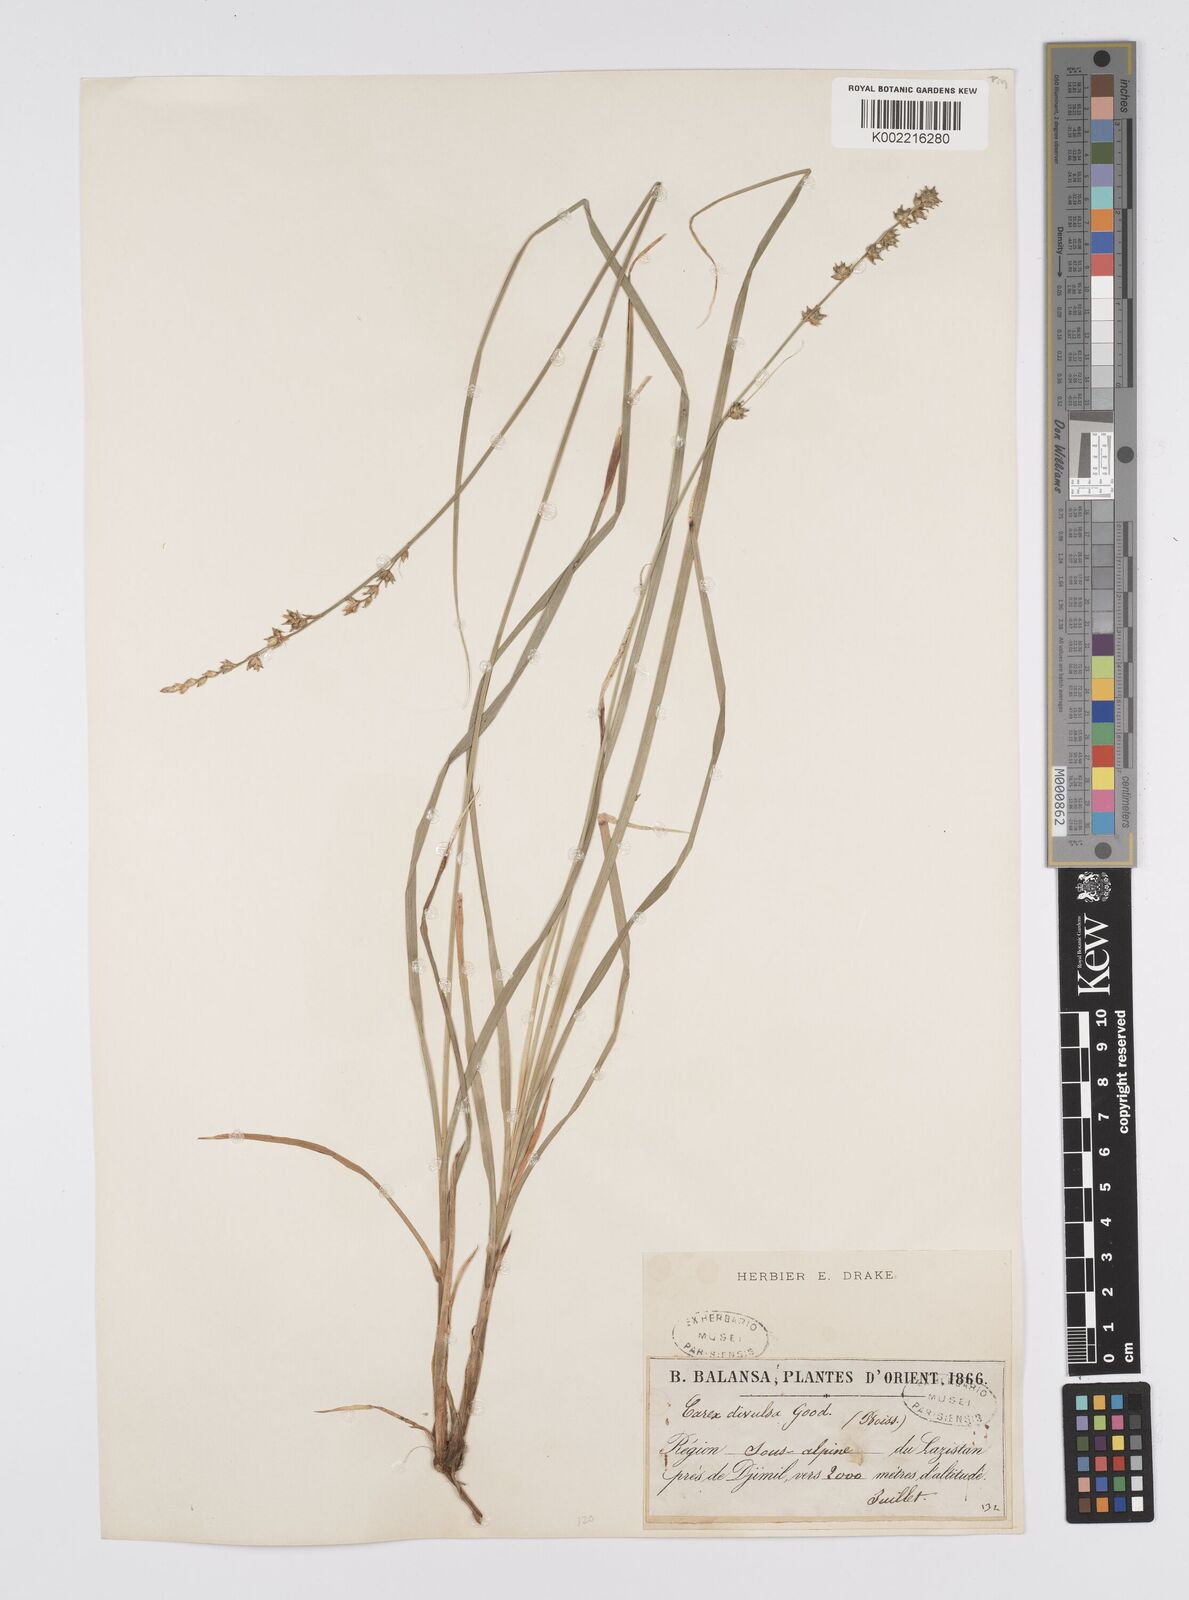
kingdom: Plantae
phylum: Tracheophyta
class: Liliopsida
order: Poales
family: Cyperaceae
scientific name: Cyperaceae
